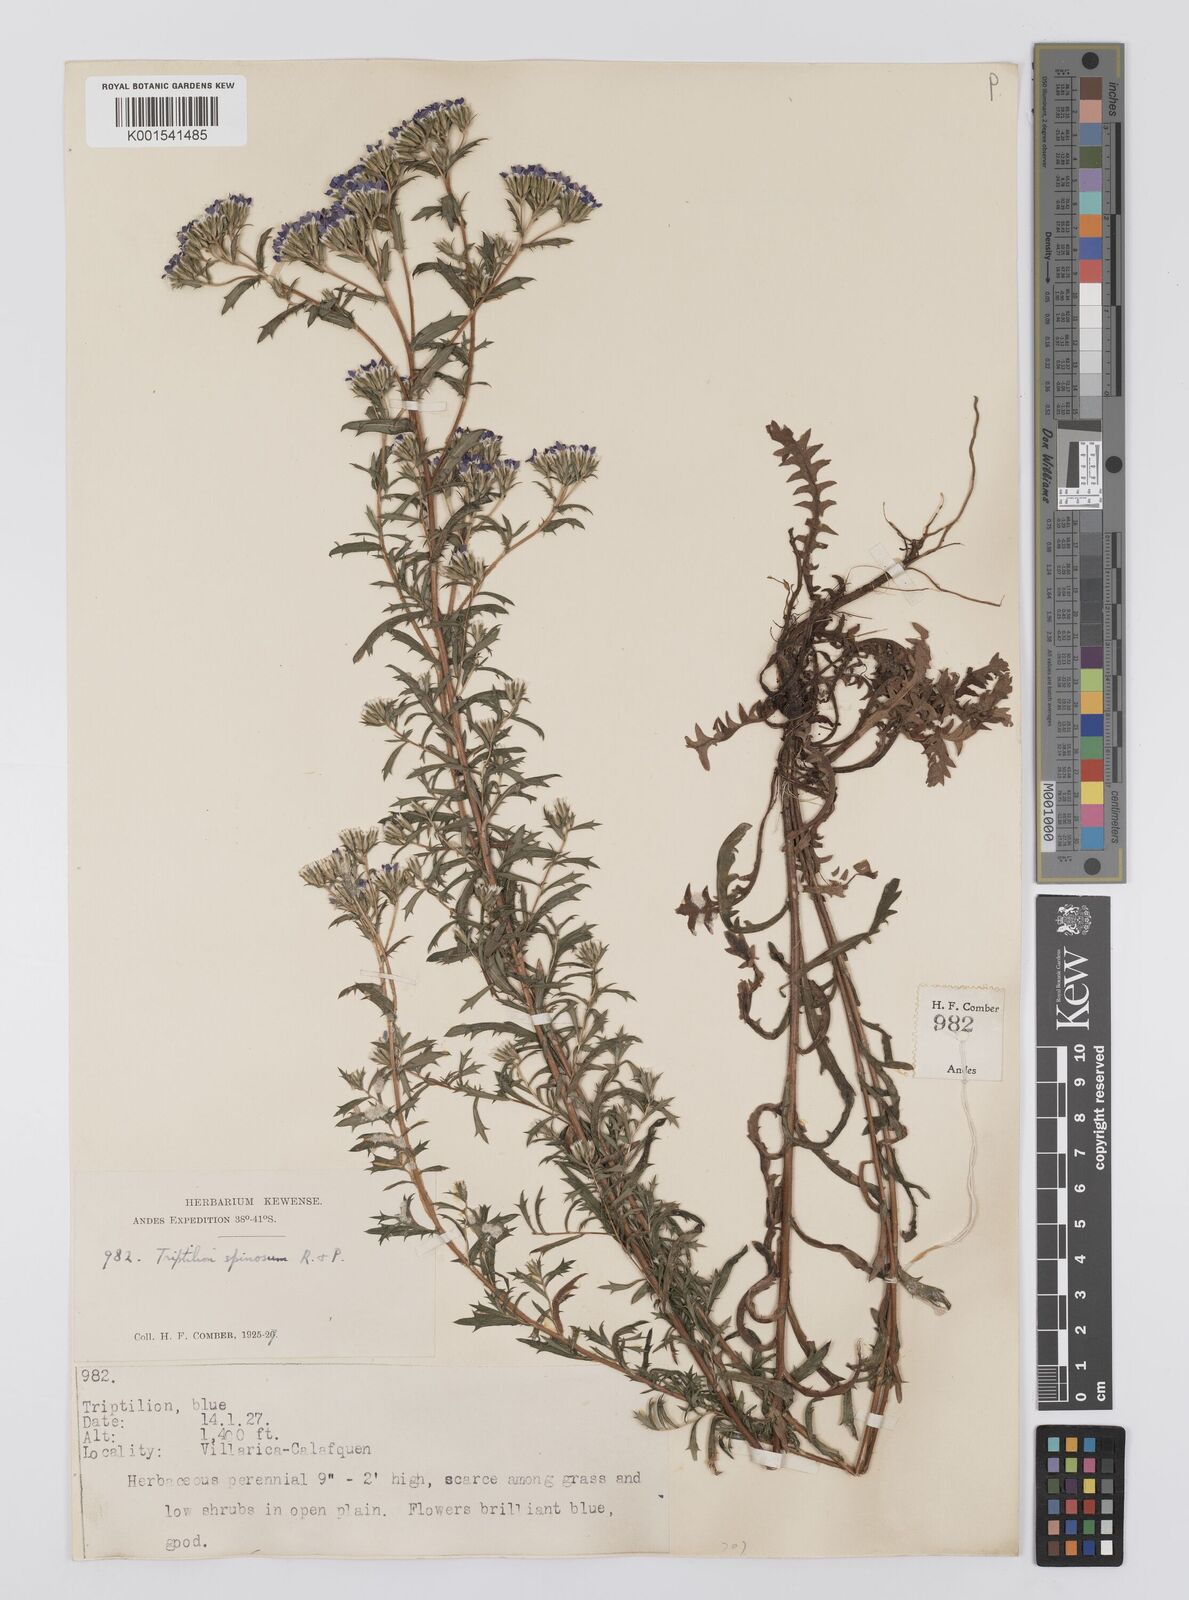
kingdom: Plantae
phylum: Tracheophyta
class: Magnoliopsida
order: Asterales
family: Asteraceae
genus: Triptilion
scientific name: Triptilion spinosum
